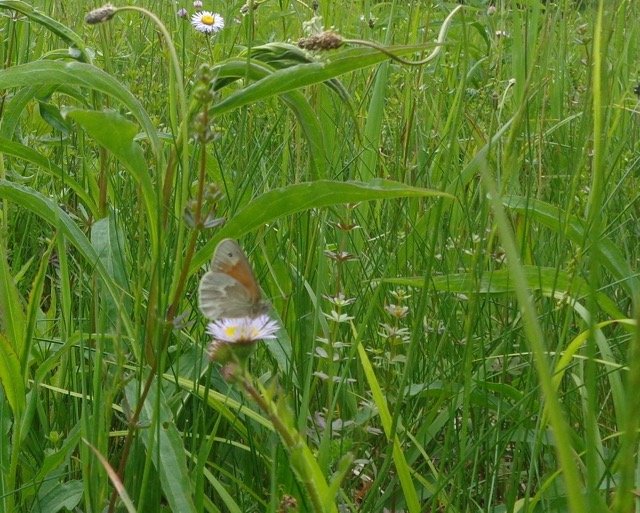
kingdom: Animalia
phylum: Arthropoda
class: Insecta
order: Lepidoptera
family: Nymphalidae
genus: Coenonympha
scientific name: Coenonympha tullia
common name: Large Heath
